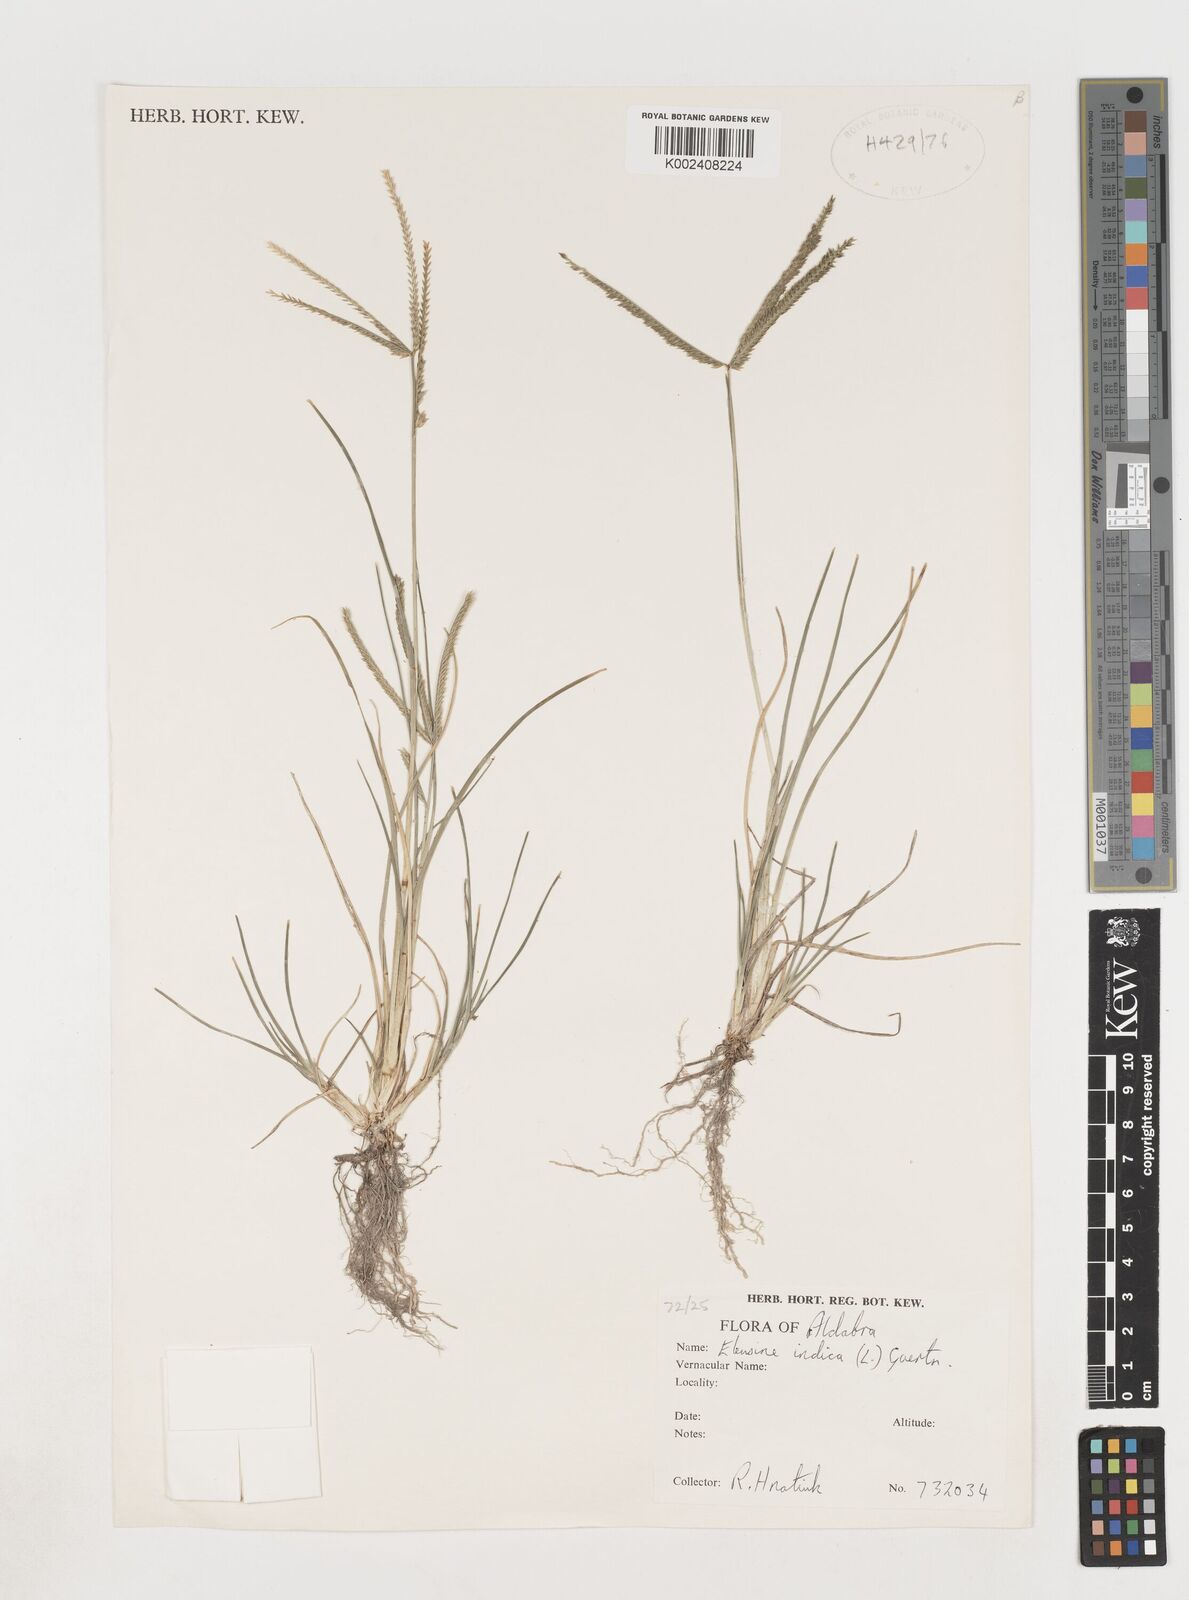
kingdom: Plantae
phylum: Tracheophyta
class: Liliopsida
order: Poales
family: Poaceae
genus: Eleusine
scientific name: Eleusine africana
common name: Wild african finger millet
